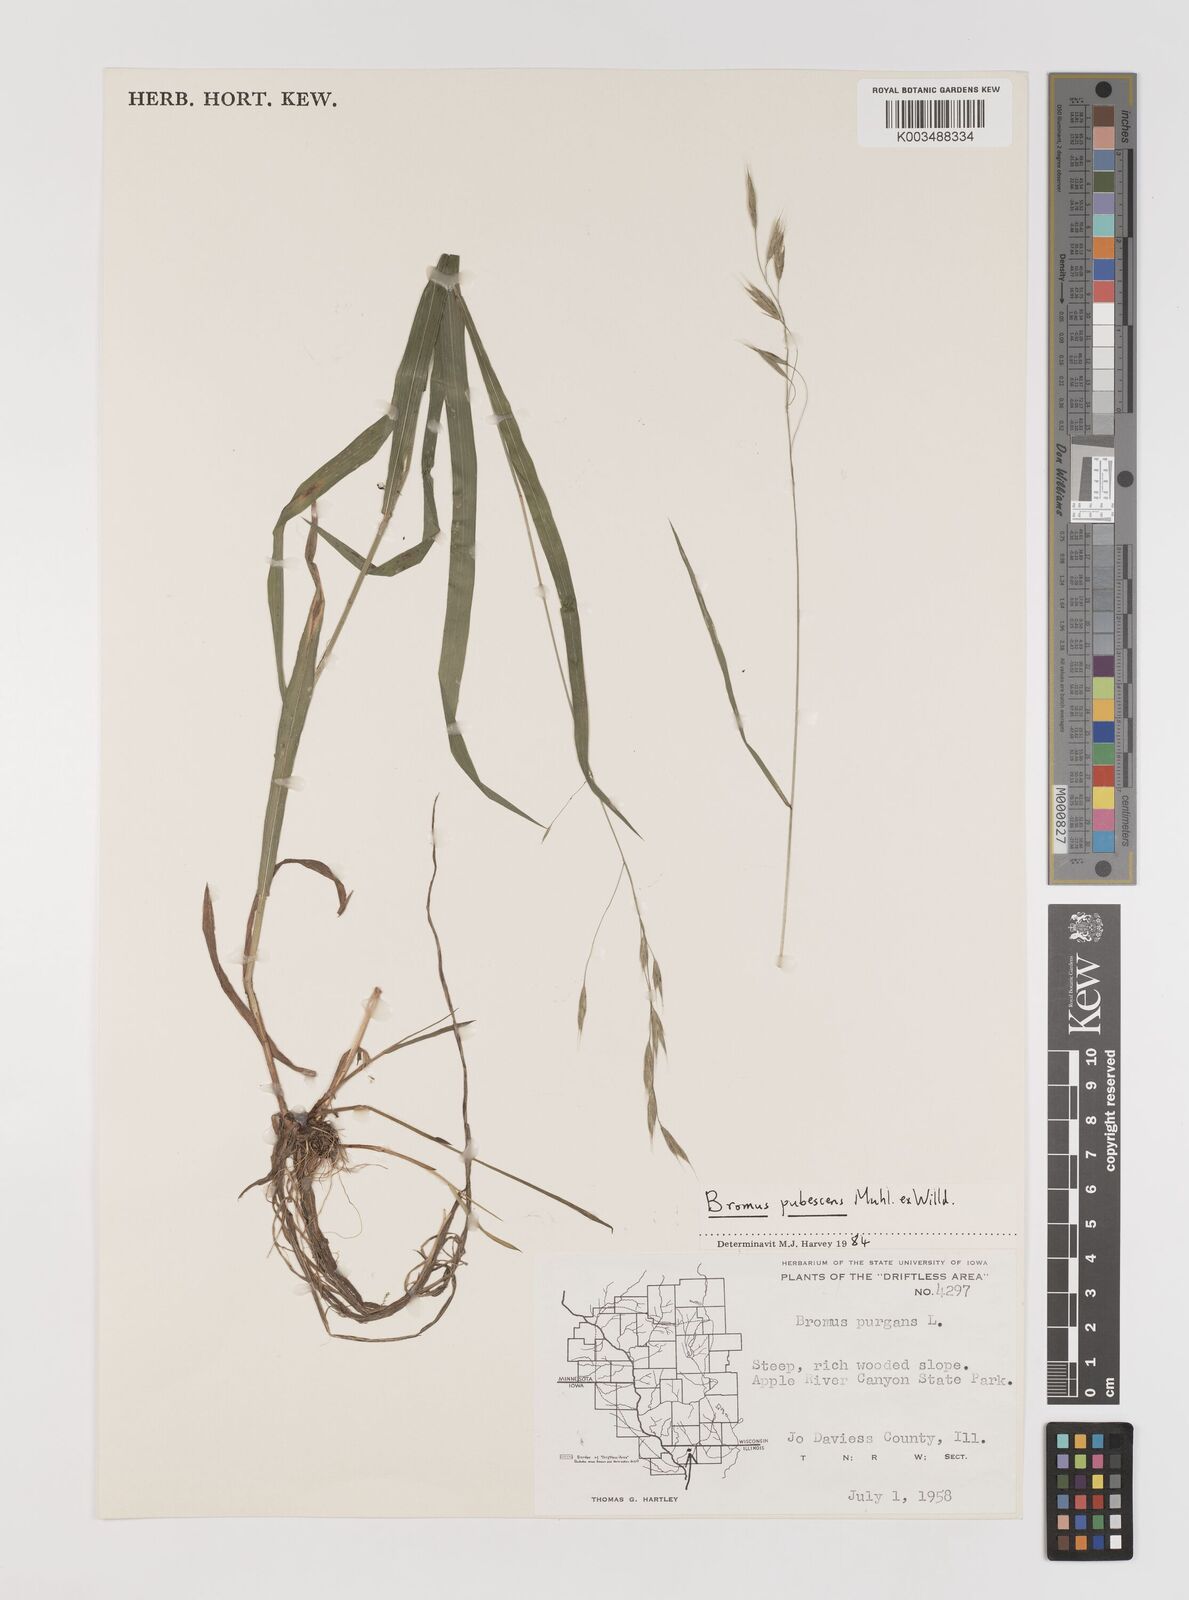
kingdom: Plantae
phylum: Tracheophyta
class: Liliopsida
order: Poales
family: Poaceae
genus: Bromus
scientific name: Bromus pubescens
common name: Hairy wood brome grass
